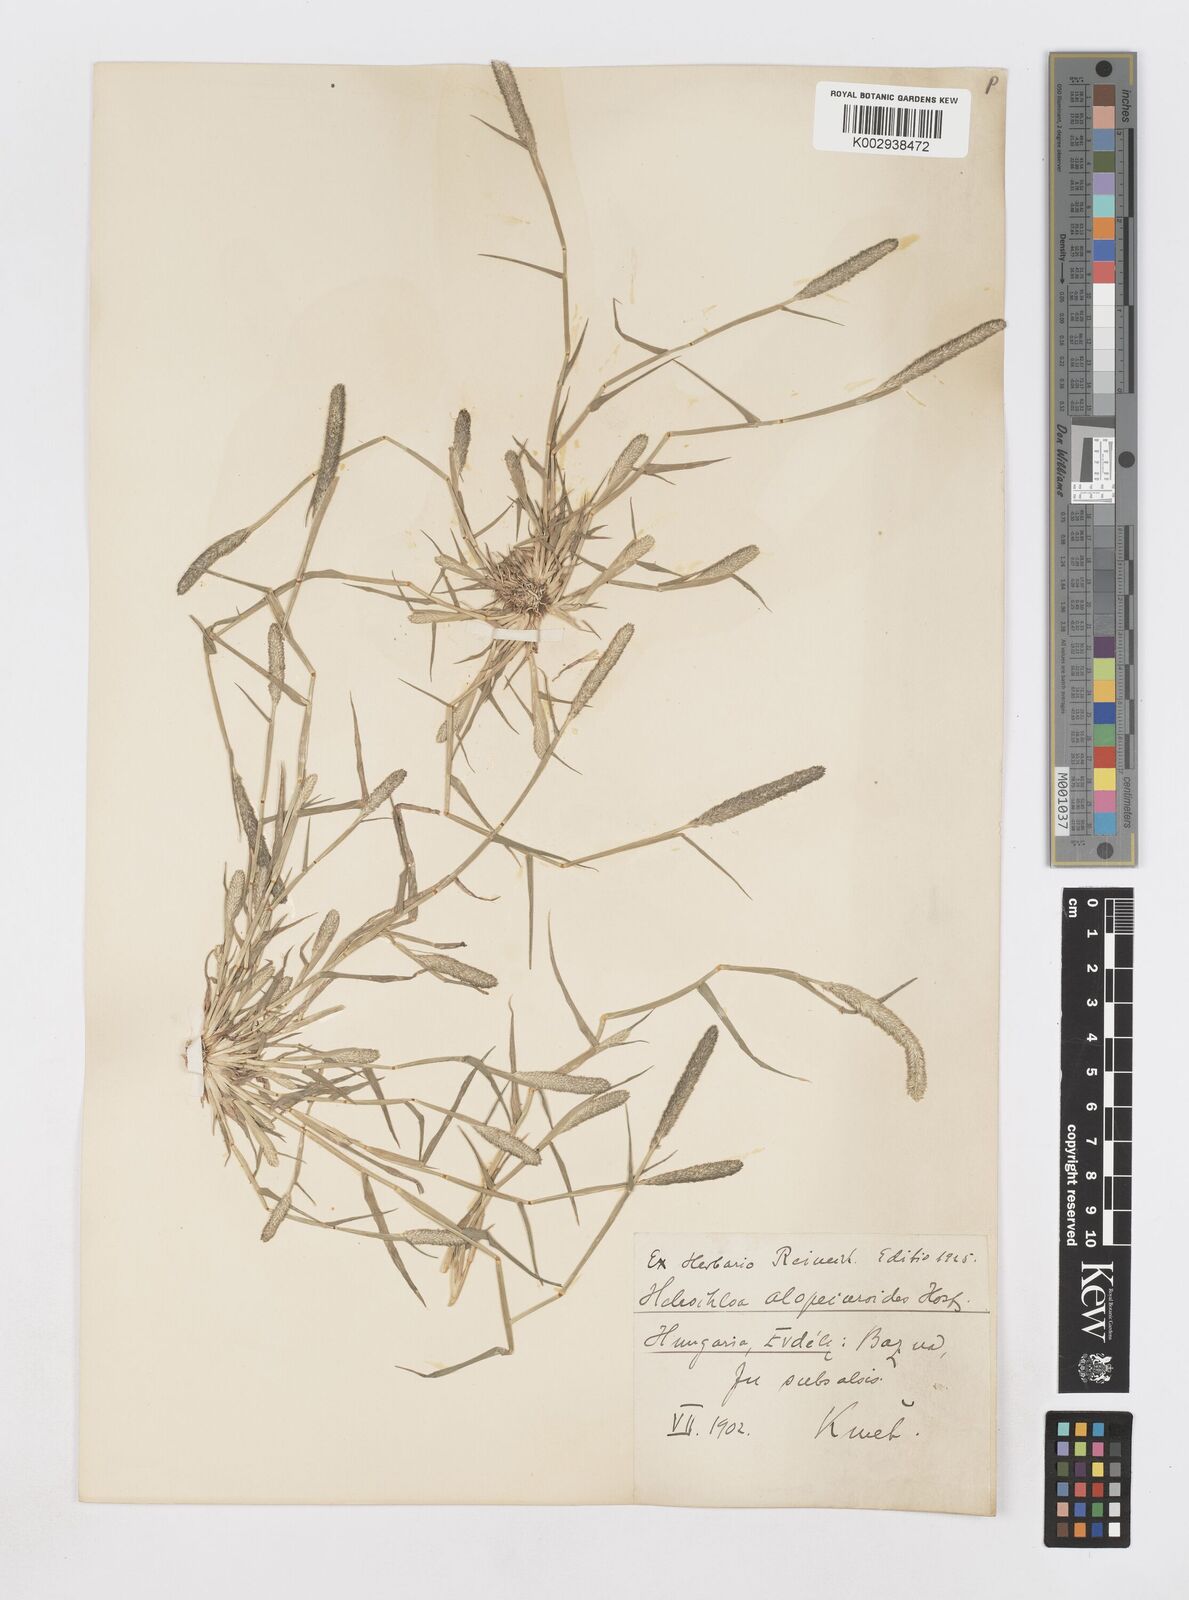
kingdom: Plantae
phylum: Tracheophyta
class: Liliopsida
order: Poales
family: Poaceae
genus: Sporobolus
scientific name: Sporobolus alopecuroides
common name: Foxtail pricklegrass
